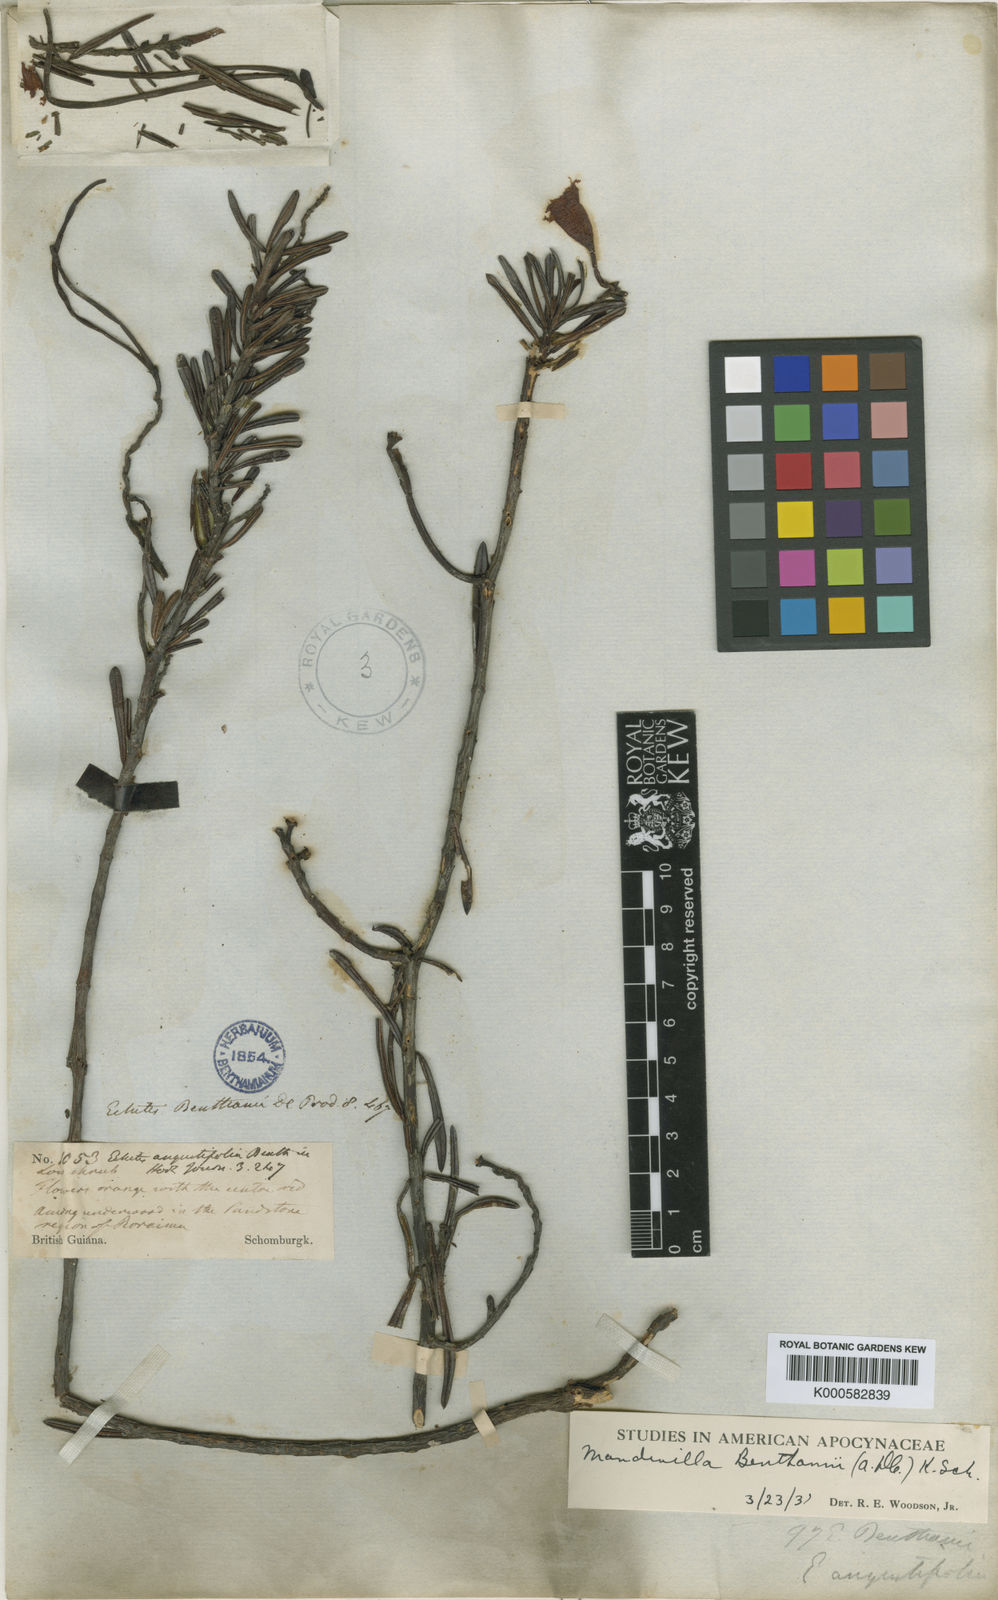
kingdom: Plantae
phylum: Tracheophyta
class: Magnoliopsida
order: Gentianales
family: Apocynaceae
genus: Mandevilla
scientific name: Mandevilla benthamii
